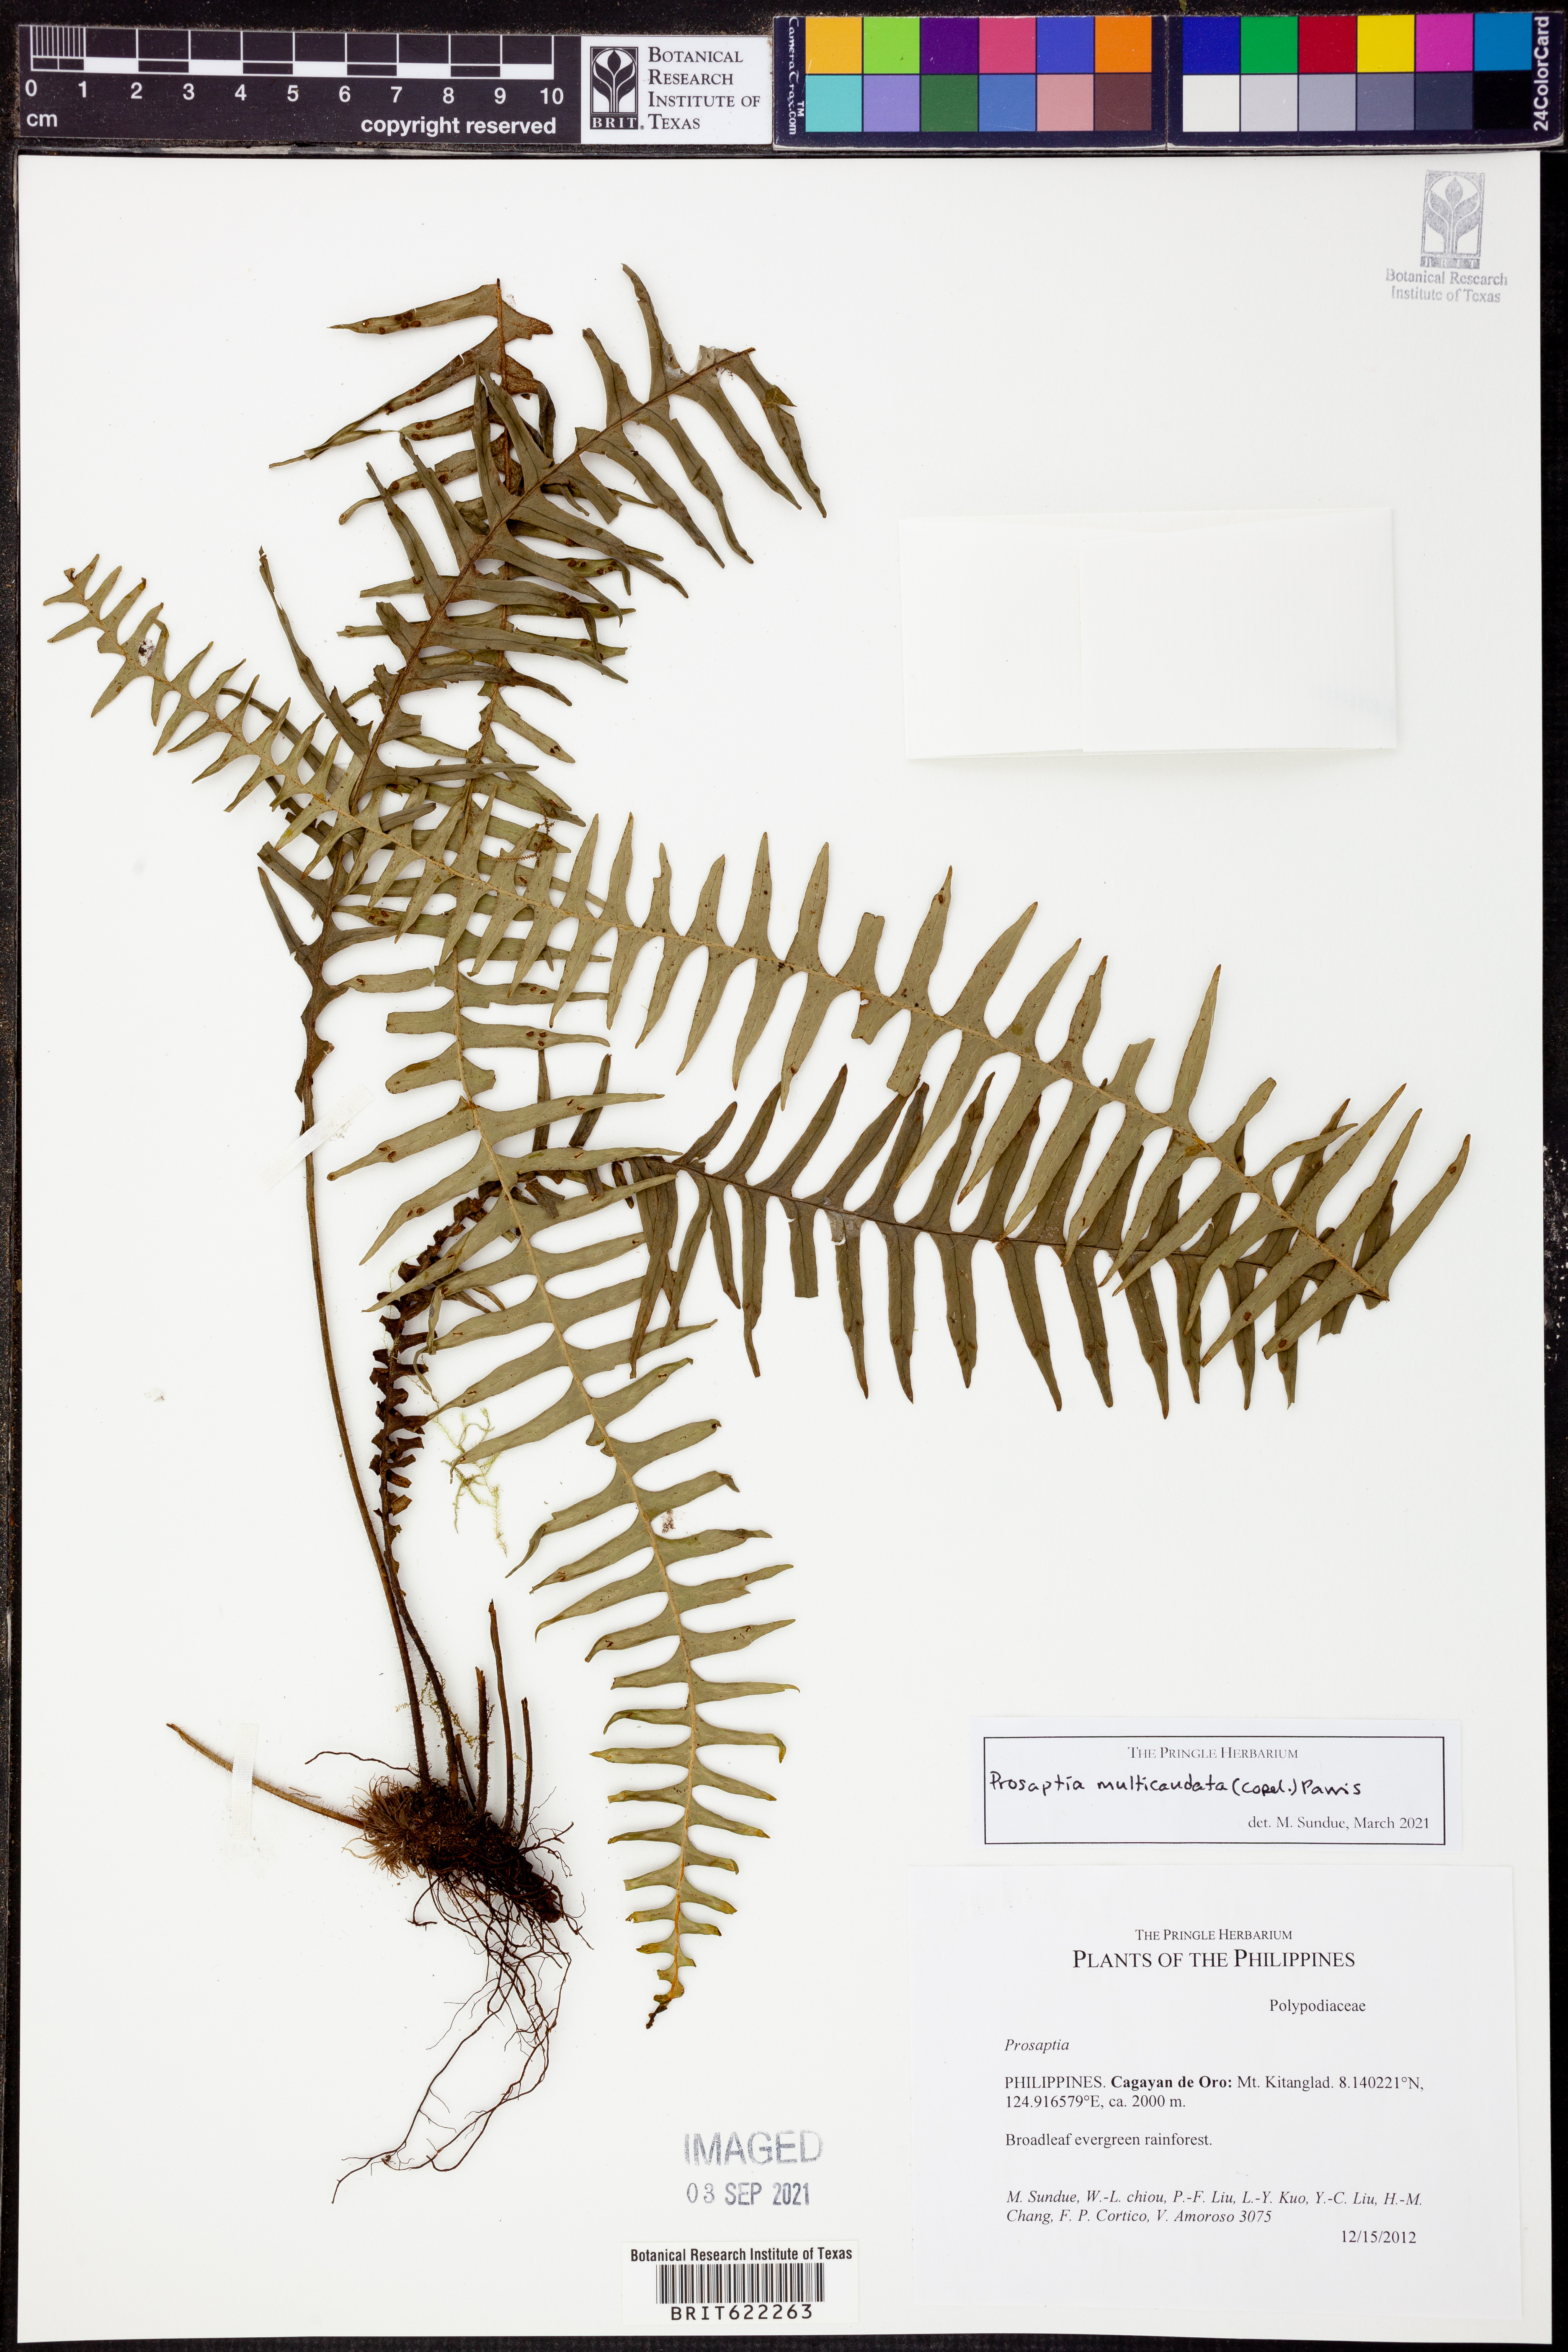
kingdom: Plantae
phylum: Tracheophyta
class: Polypodiopsida
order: Polypodiales
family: Polypodiaceae
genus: Prosaptia
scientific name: Prosaptia multicaudata
